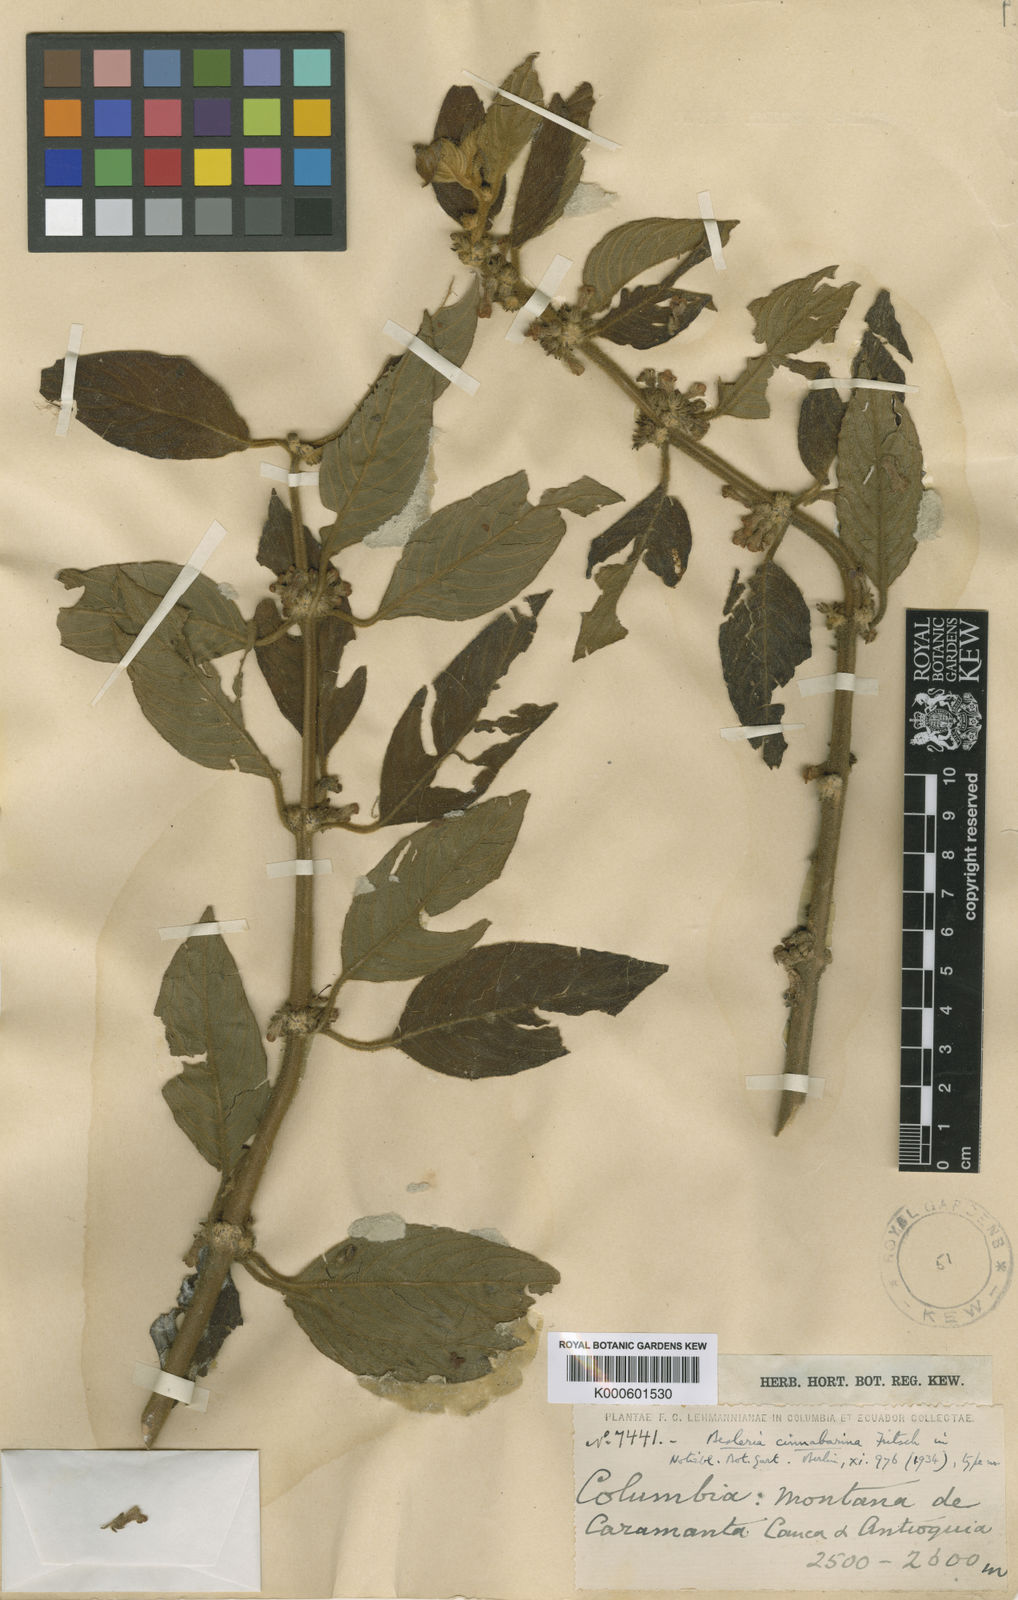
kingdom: Plantae
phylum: Tracheophyta
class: Magnoliopsida
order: Lamiales
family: Gesneriaceae
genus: Besleria
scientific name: Besleria cinnabarina
